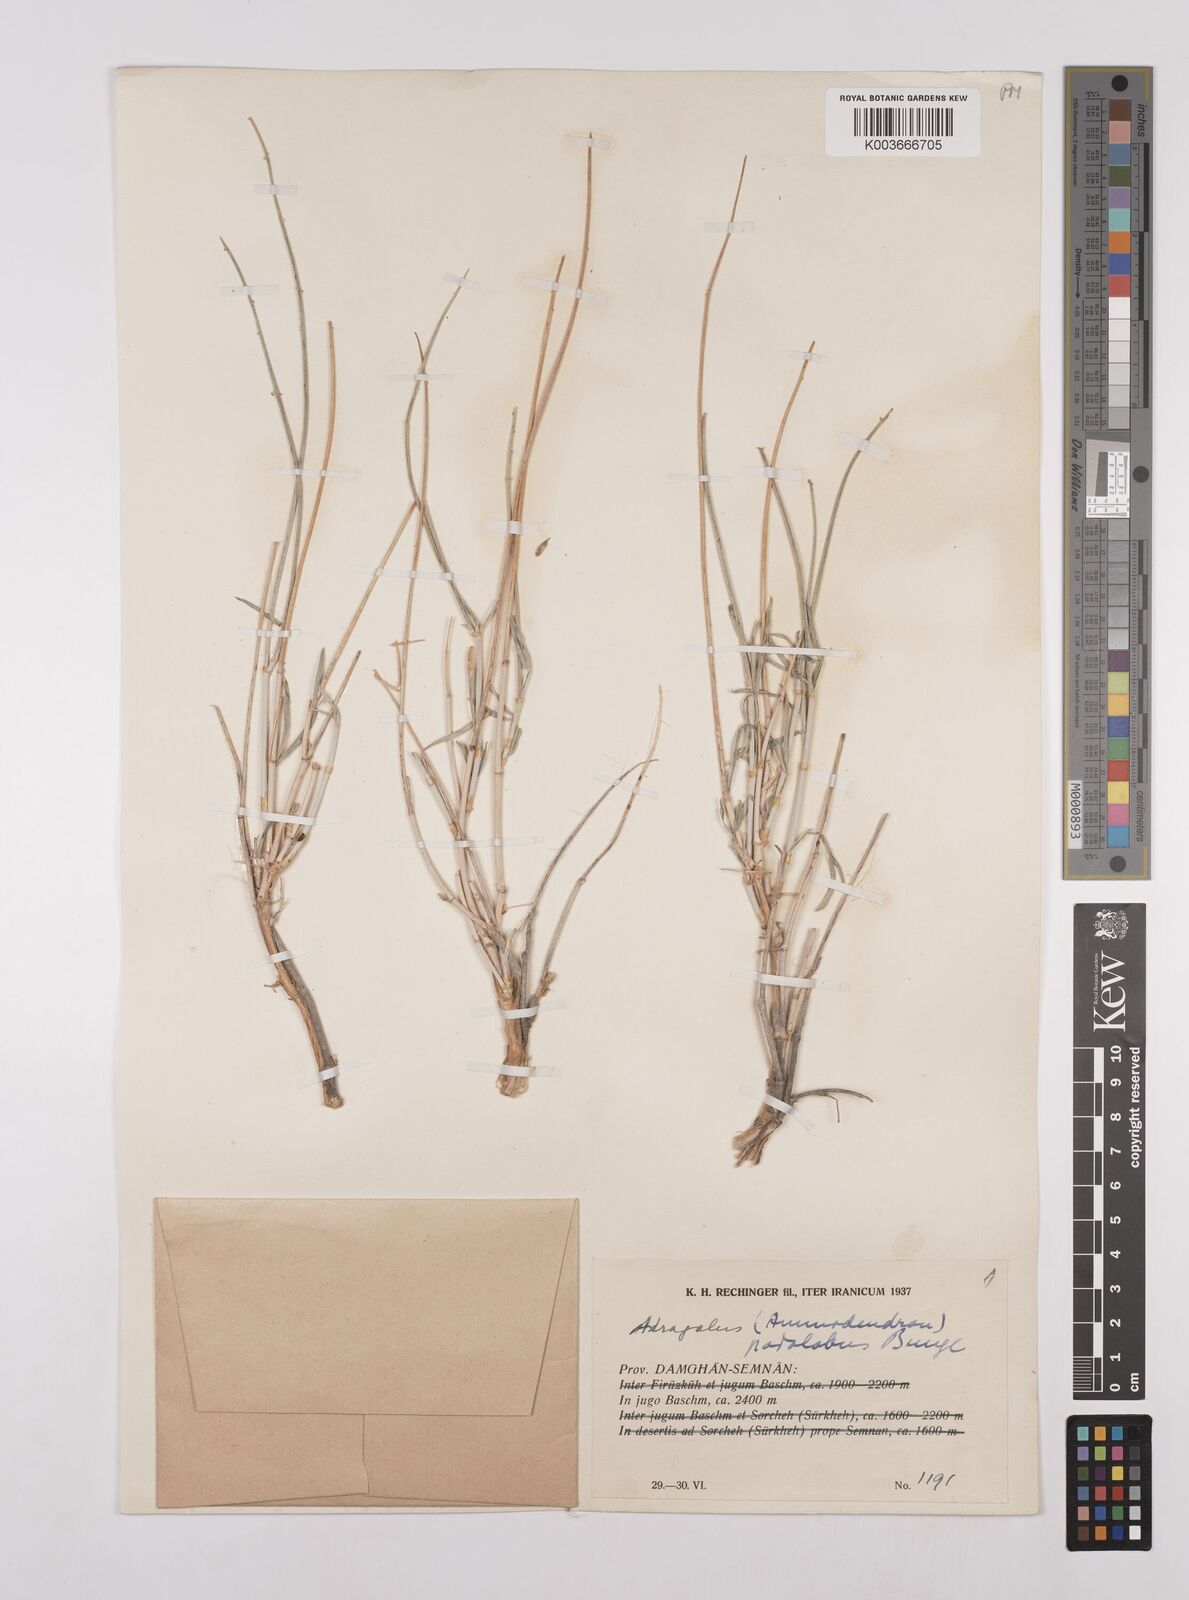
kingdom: Plantae
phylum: Tracheophyta
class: Magnoliopsida
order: Fabales
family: Fabaceae
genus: Astragalus
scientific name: Astragalus podolobus
